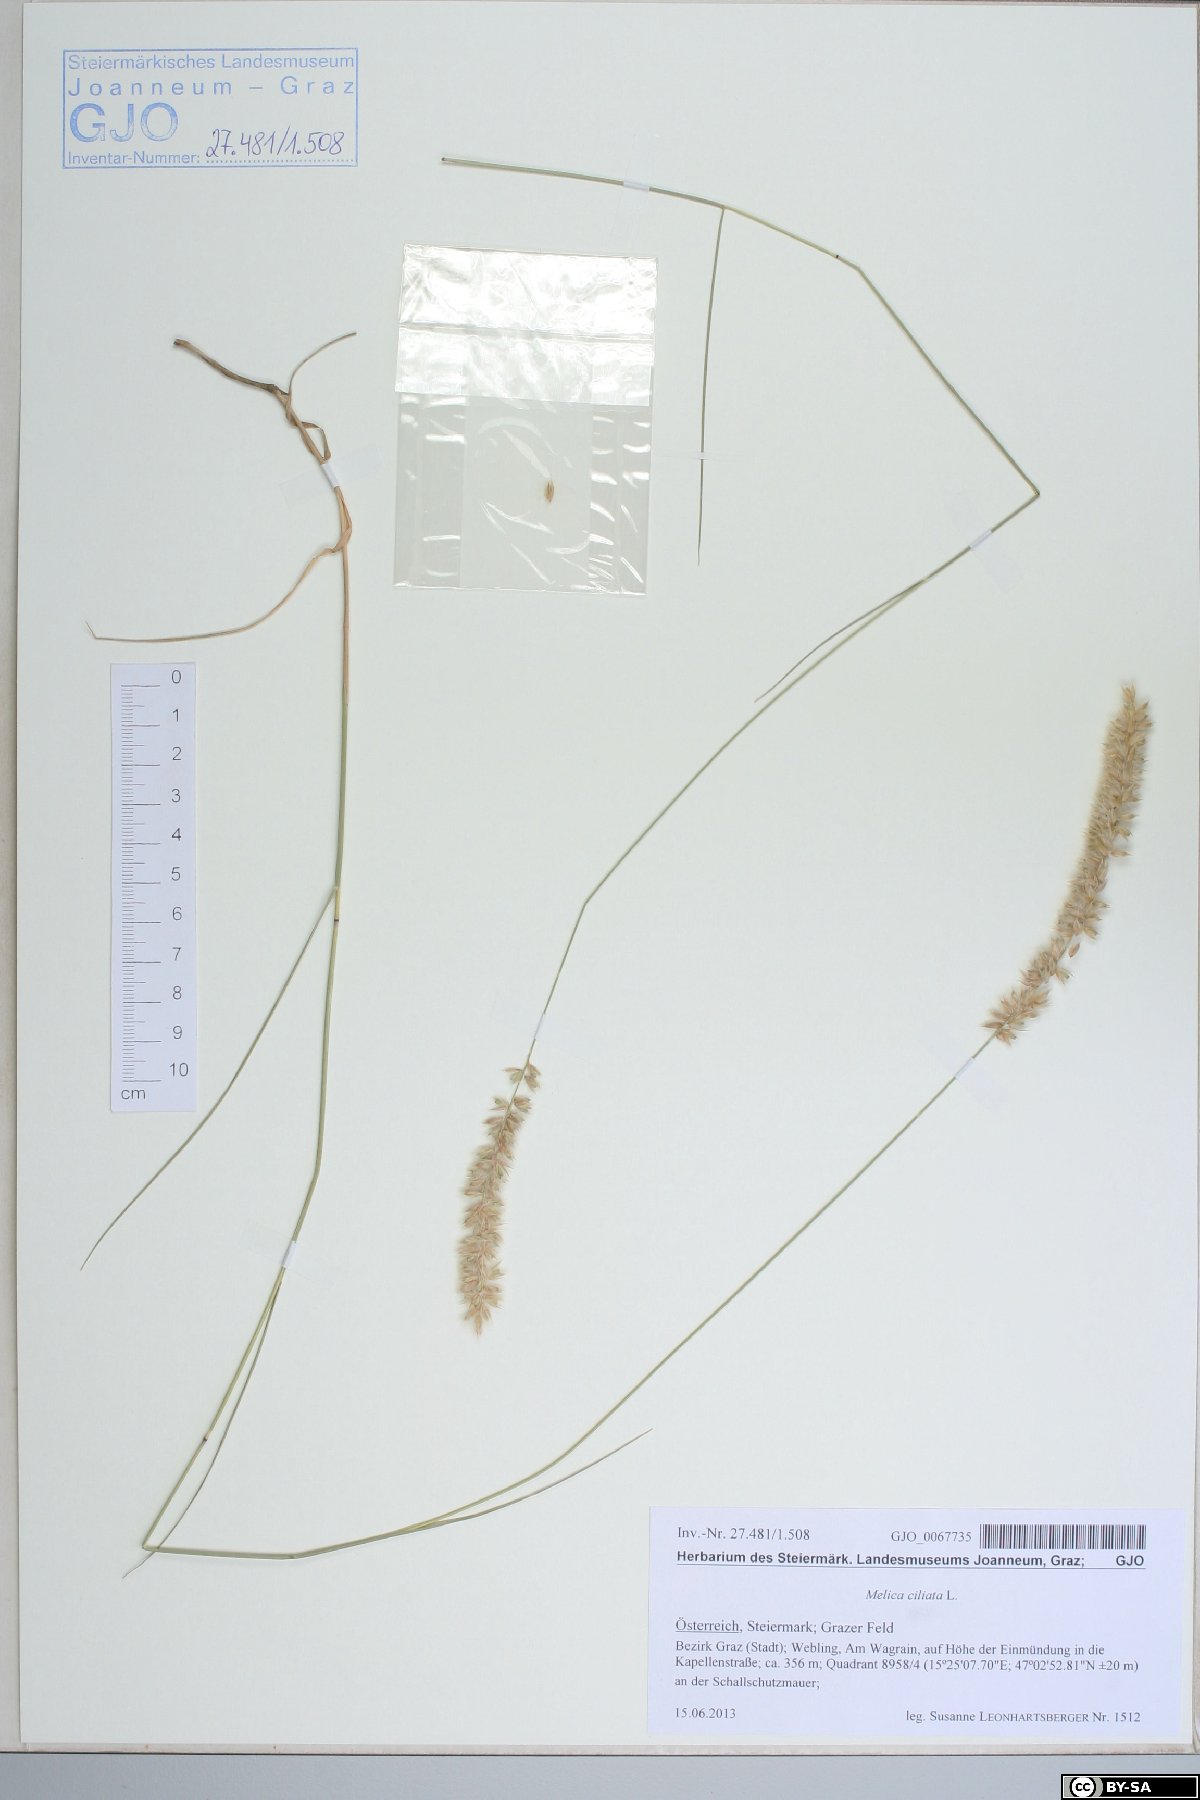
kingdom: Plantae
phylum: Tracheophyta
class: Liliopsida
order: Poales
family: Poaceae
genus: Melica
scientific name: Melica ciliata
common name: Hairy melicgrass
